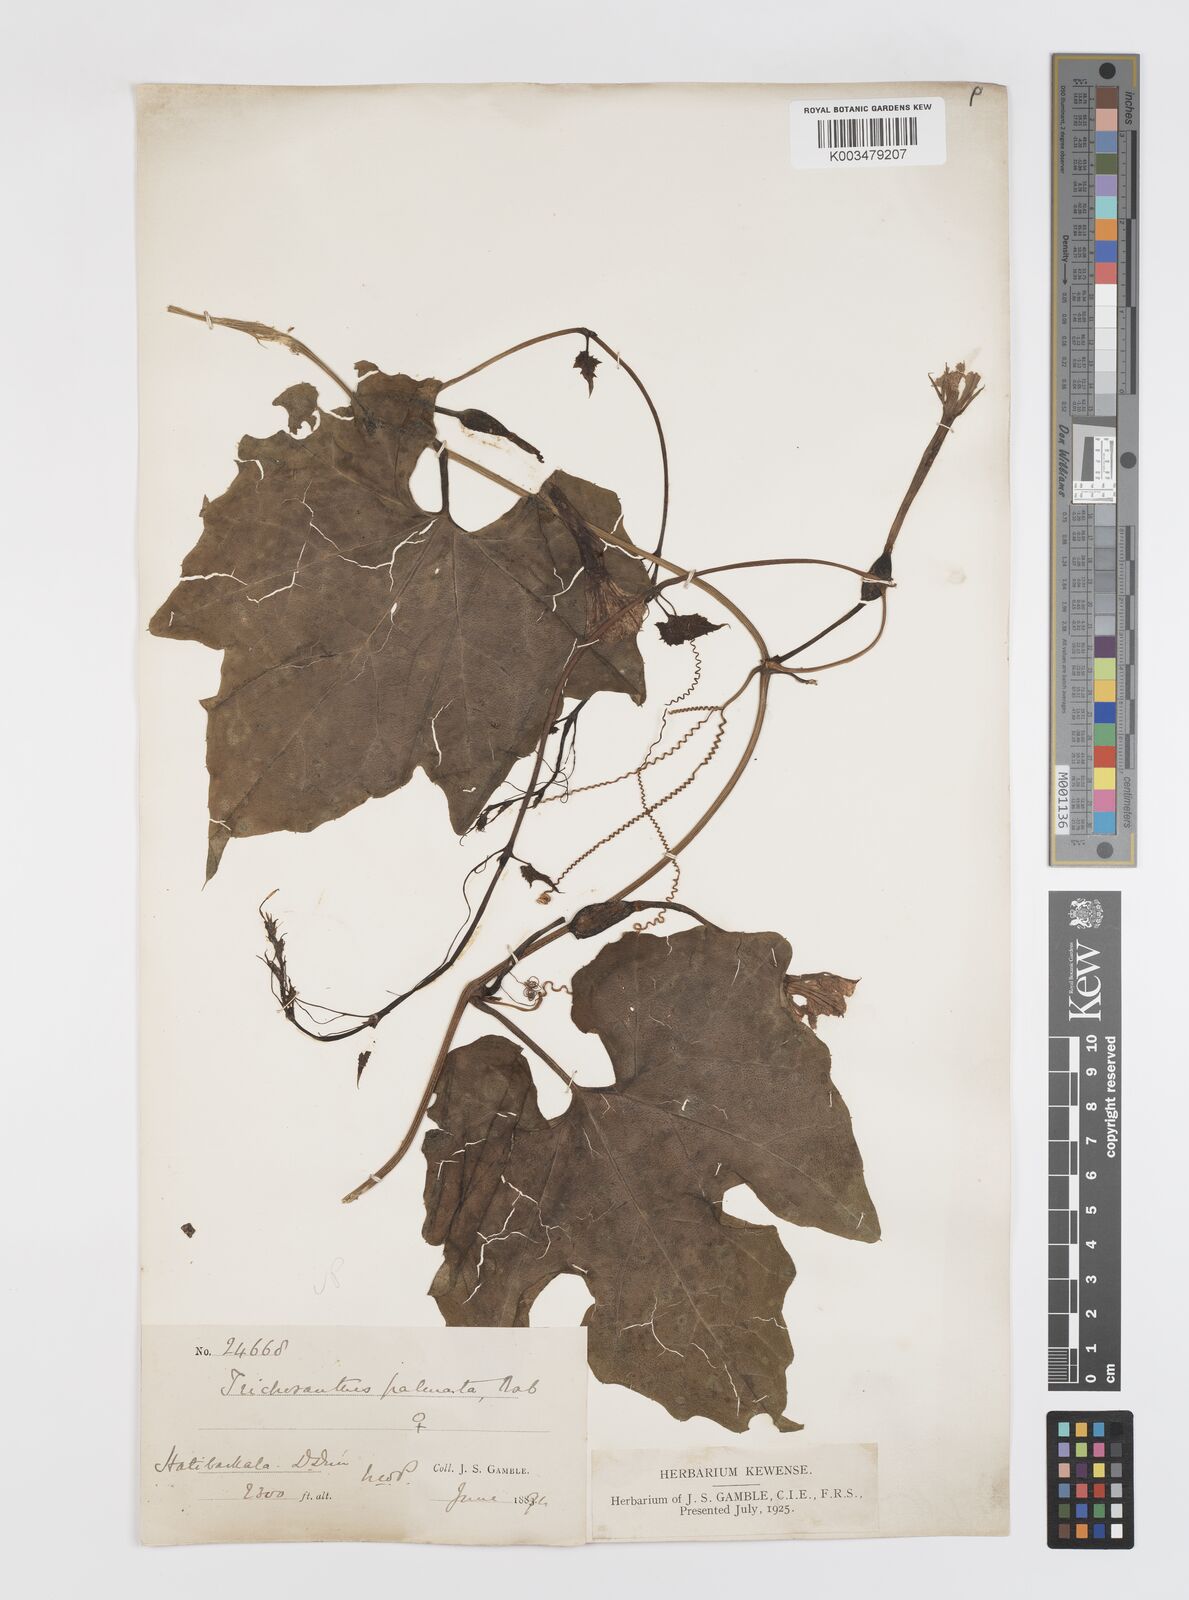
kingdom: Plantae
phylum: Tracheophyta
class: Magnoliopsida
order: Cucurbitales
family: Cucurbitaceae
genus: Trichosanthes
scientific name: Trichosanthes tricuspidata
